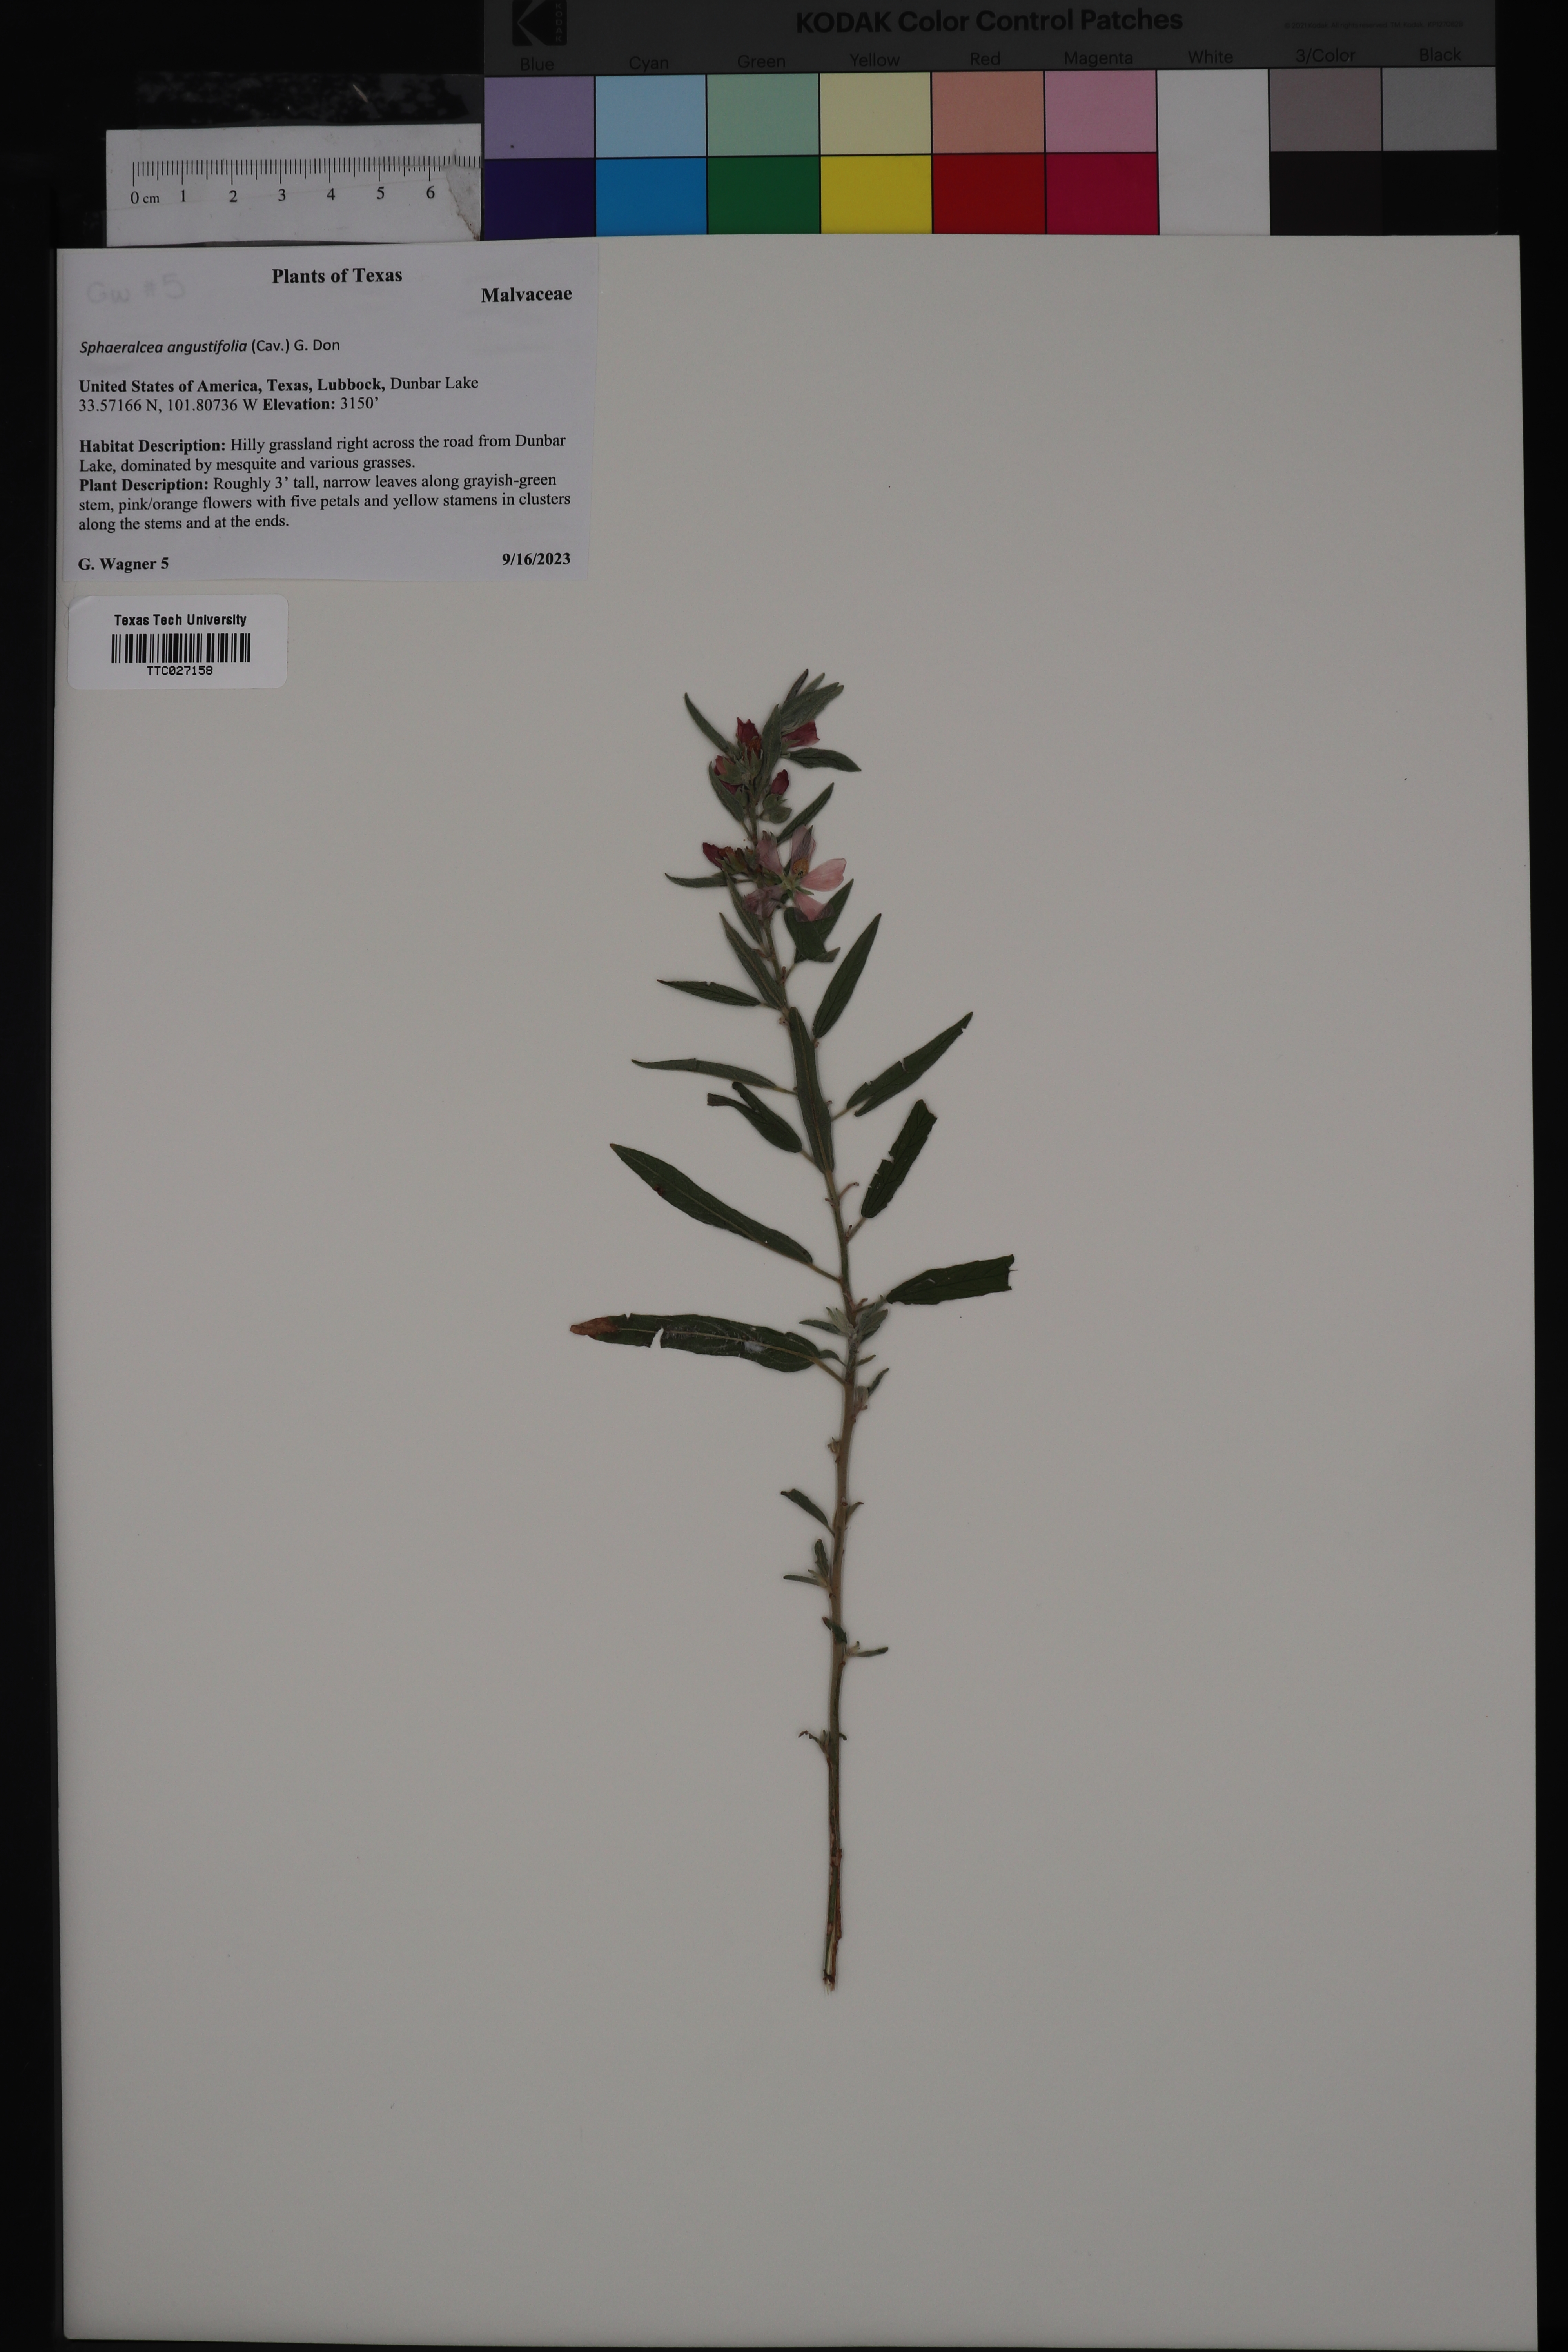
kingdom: Plantae
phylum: Tracheophyta
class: Magnoliopsida
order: Malvales
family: Malvaceae
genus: Sphaeralcea
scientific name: Sphaeralcea angustifolia
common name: Copper globe-mallow
